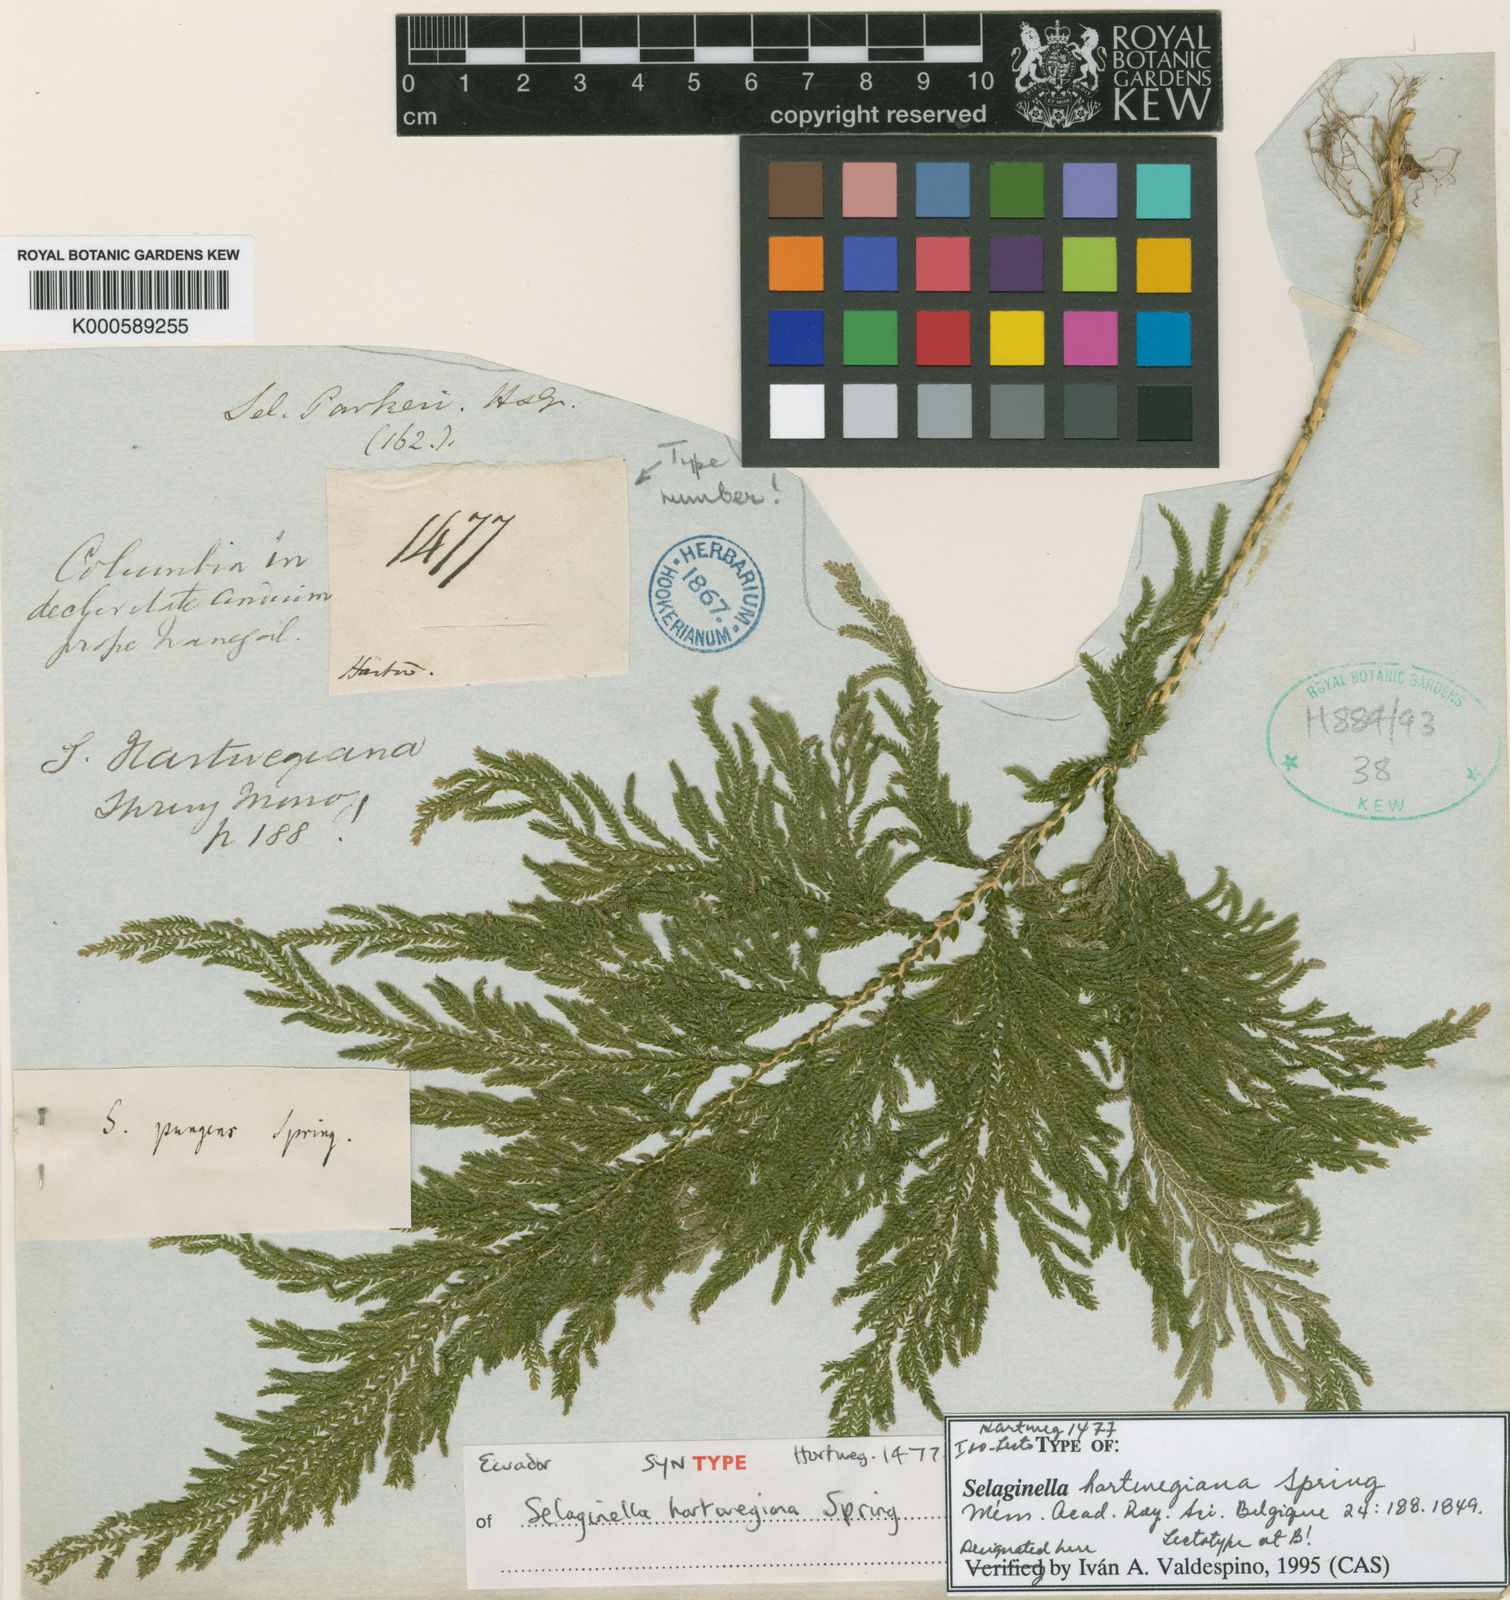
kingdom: Plantae
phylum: Tracheophyta
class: Lycopodiopsida
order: Selaginellales
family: Selaginellaceae
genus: Selaginella
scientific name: Selaginella hartwegiana
